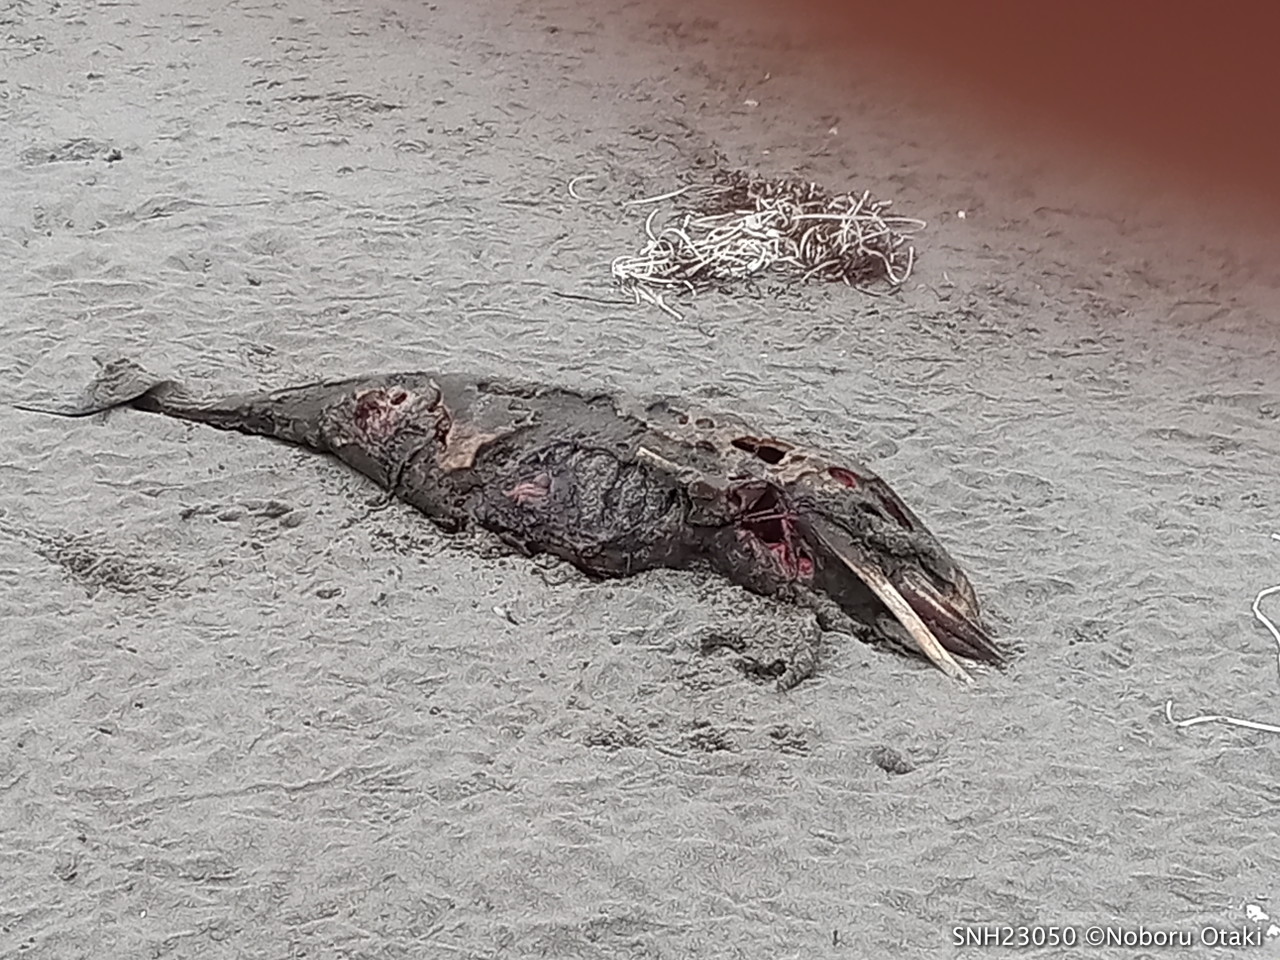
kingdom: Animalia
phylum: Chordata
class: Mammalia
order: Cetacea
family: Delphinidae
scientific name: Delphinidae
